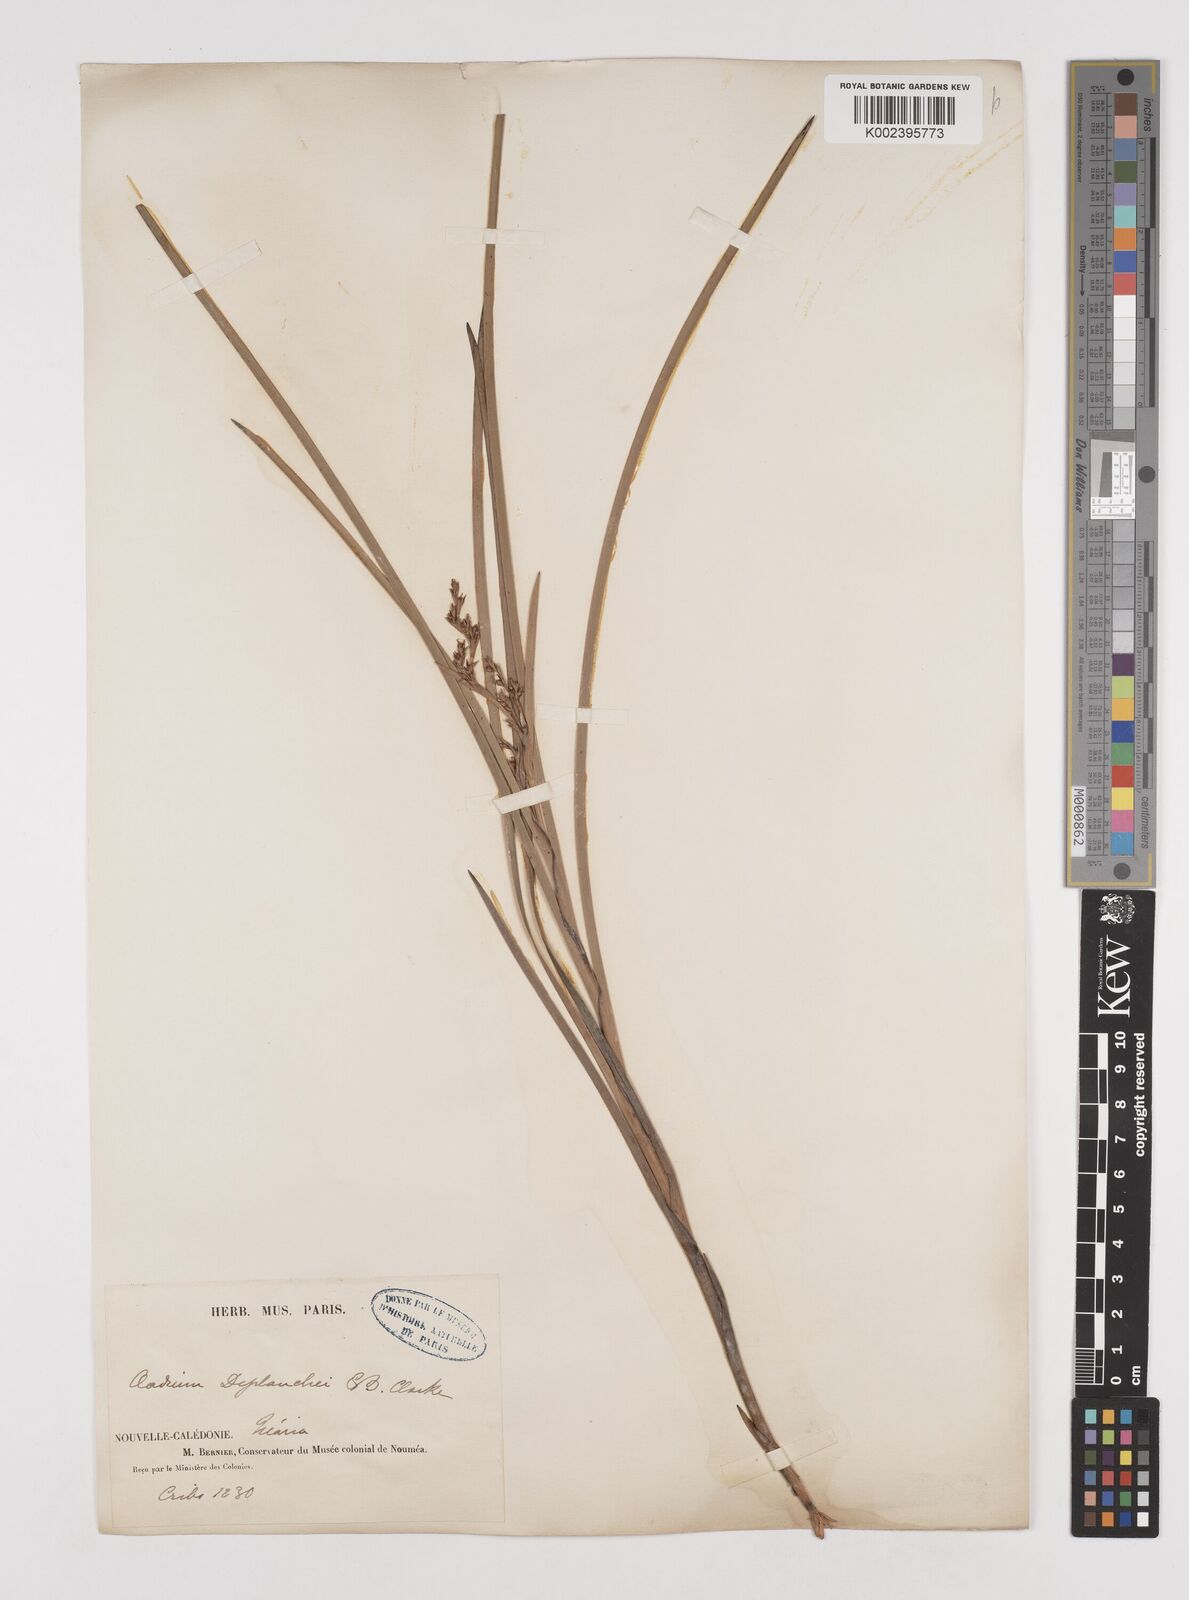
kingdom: Plantae
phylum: Tracheophyta
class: Liliopsida
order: Poales
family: Cyperaceae
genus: Machaerina
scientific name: Machaerina deplanchei
